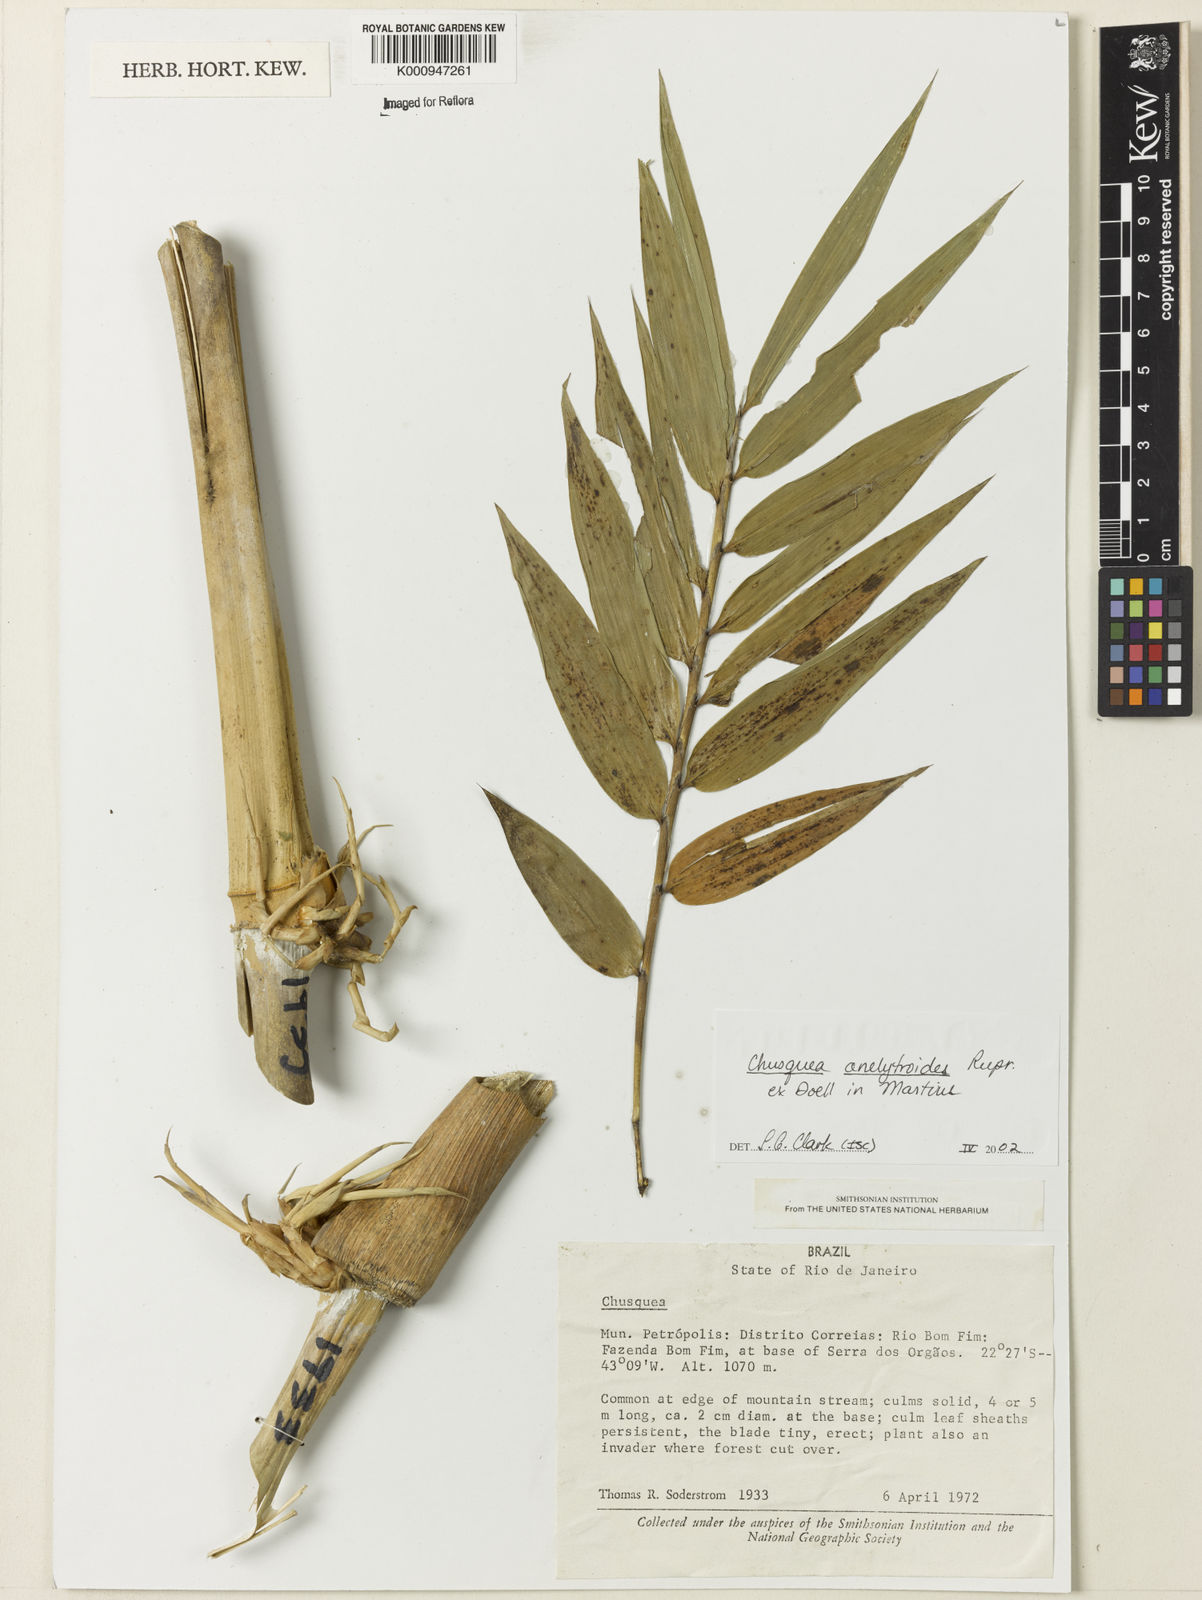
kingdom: Plantae
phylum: Tracheophyta
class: Liliopsida
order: Poales
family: Poaceae
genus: Chusquea
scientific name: Chusquea
